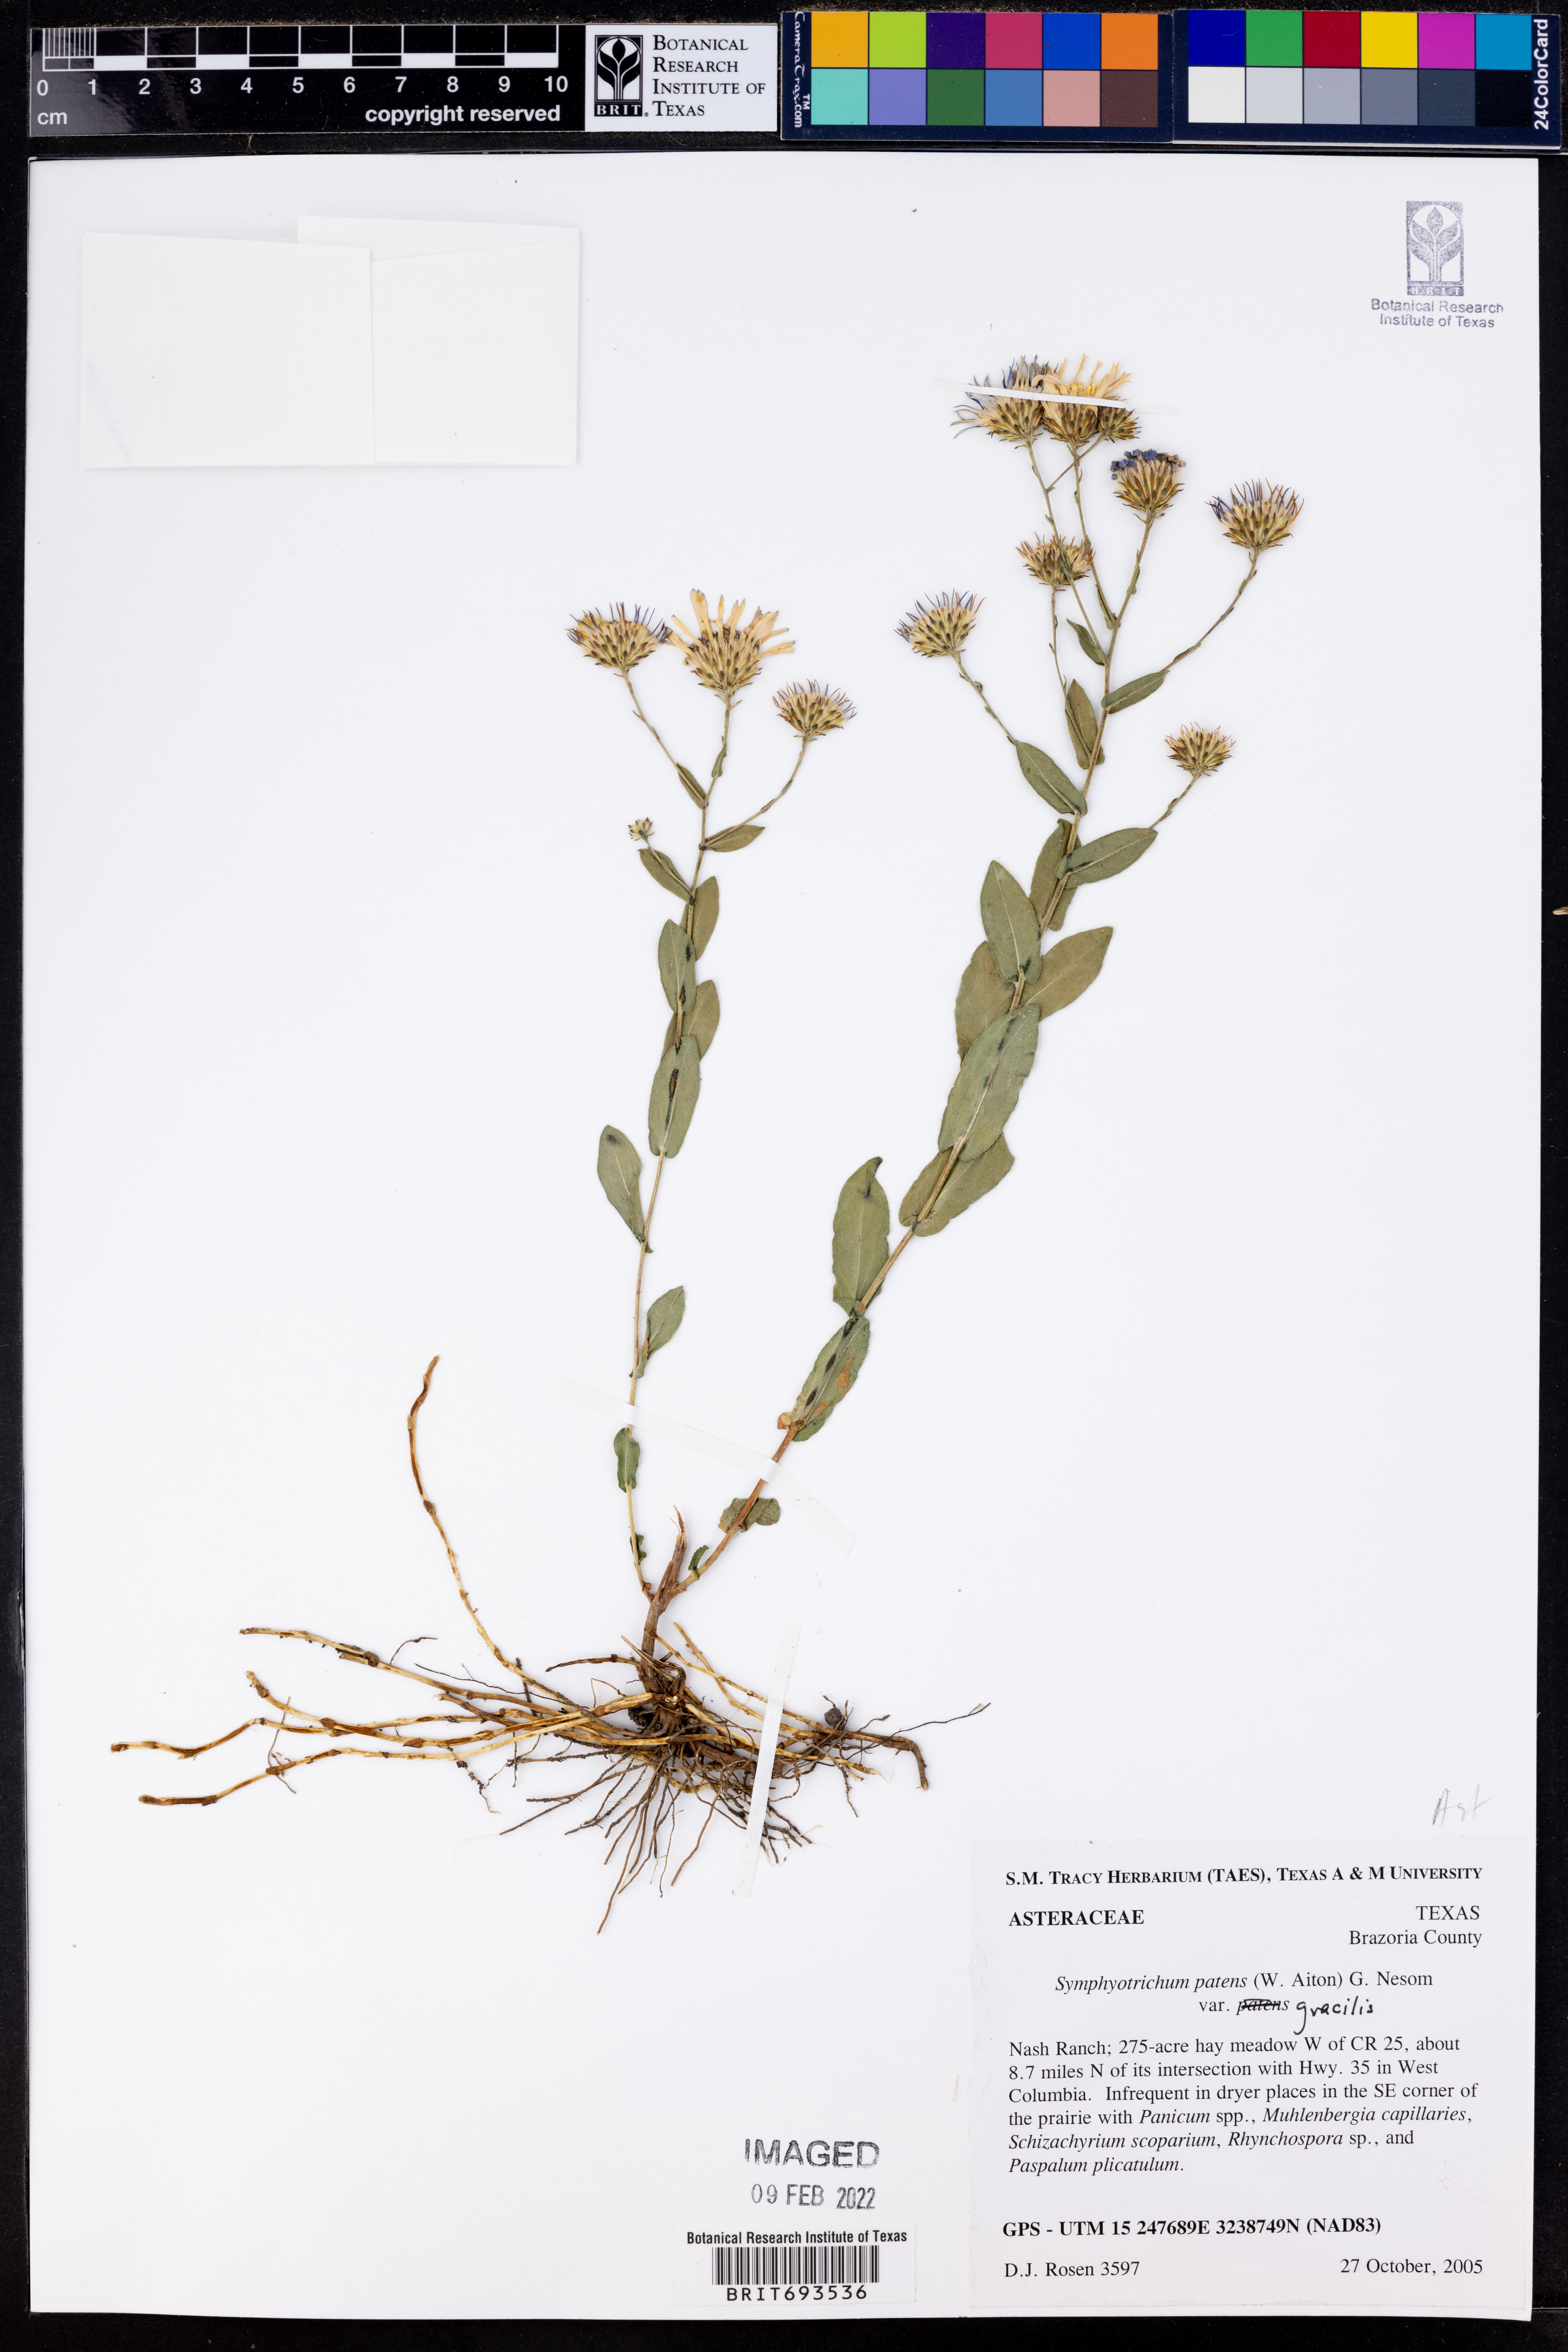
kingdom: Plantae
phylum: Tracheophyta
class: Magnoliopsida
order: Asterales
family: Asteraceae
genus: Symphyotrichum
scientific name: Symphyotrichum patens
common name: Late purple aster
